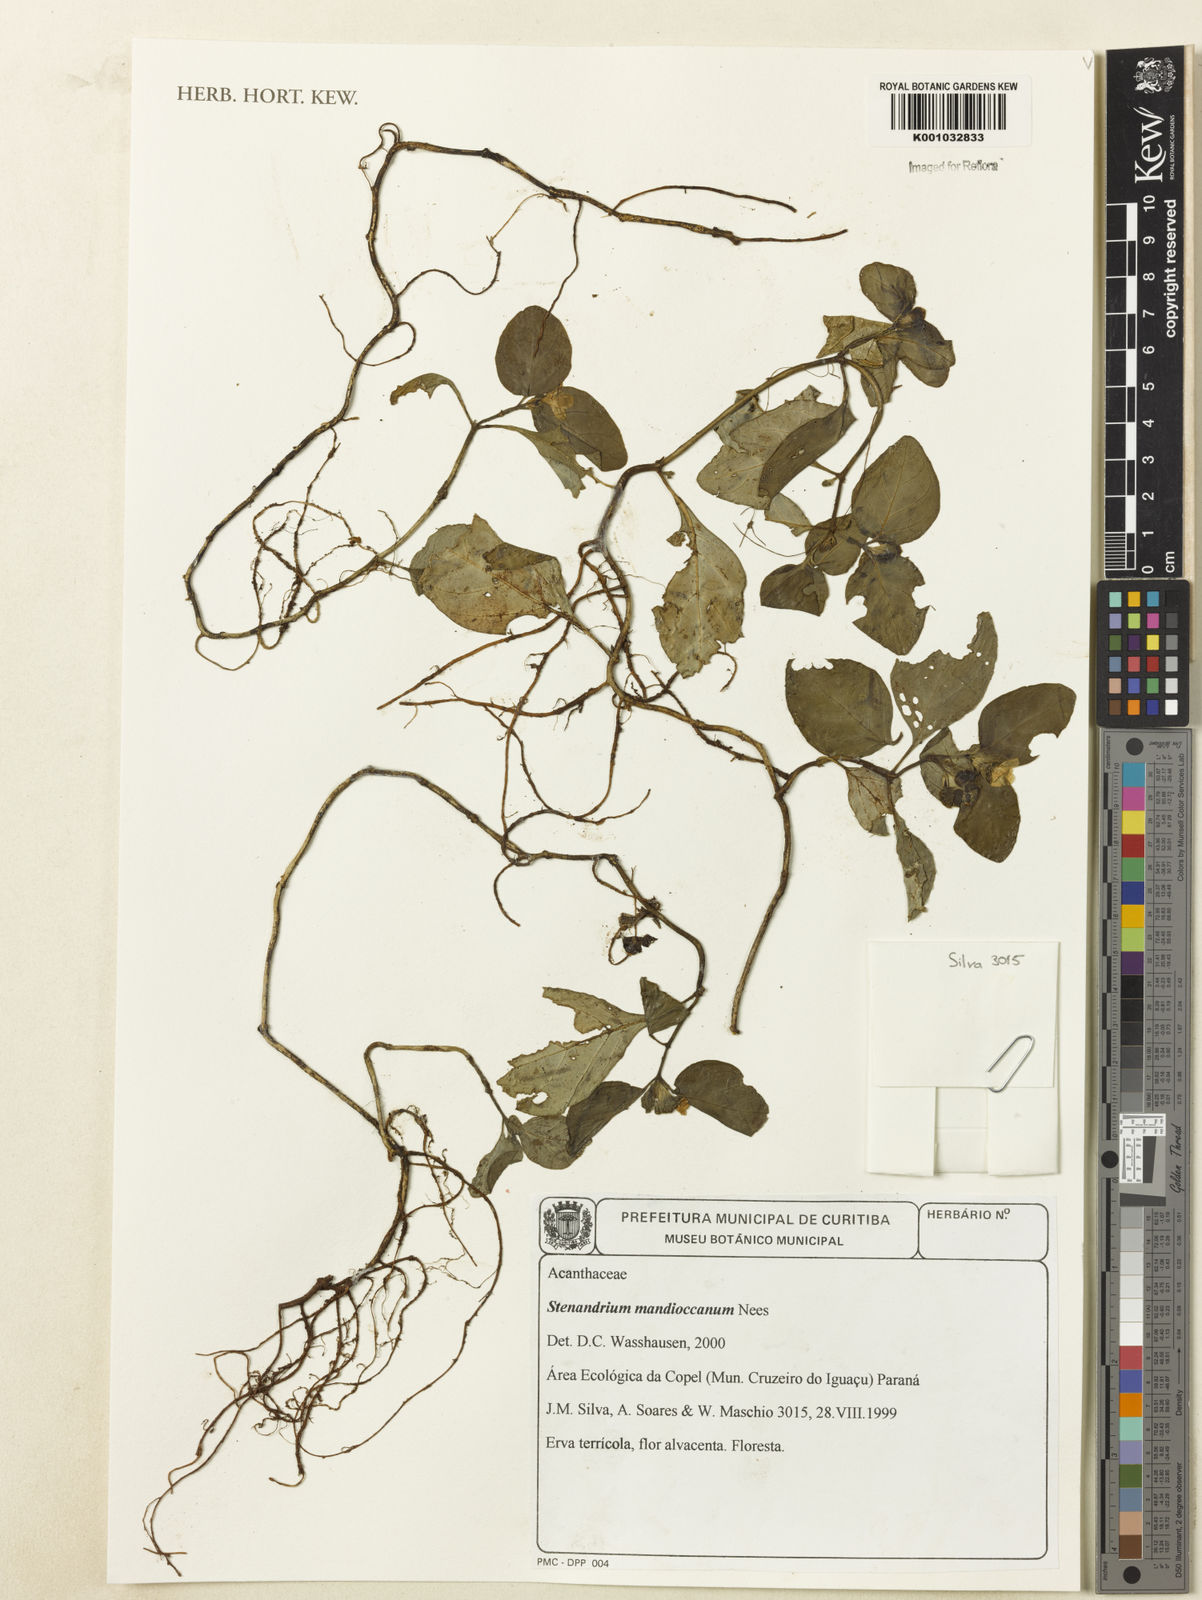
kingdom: Plantae
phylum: Tracheophyta
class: Magnoliopsida
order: Lamiales
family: Acanthaceae
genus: Stenandrium
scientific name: Stenandrium mandioccanum
